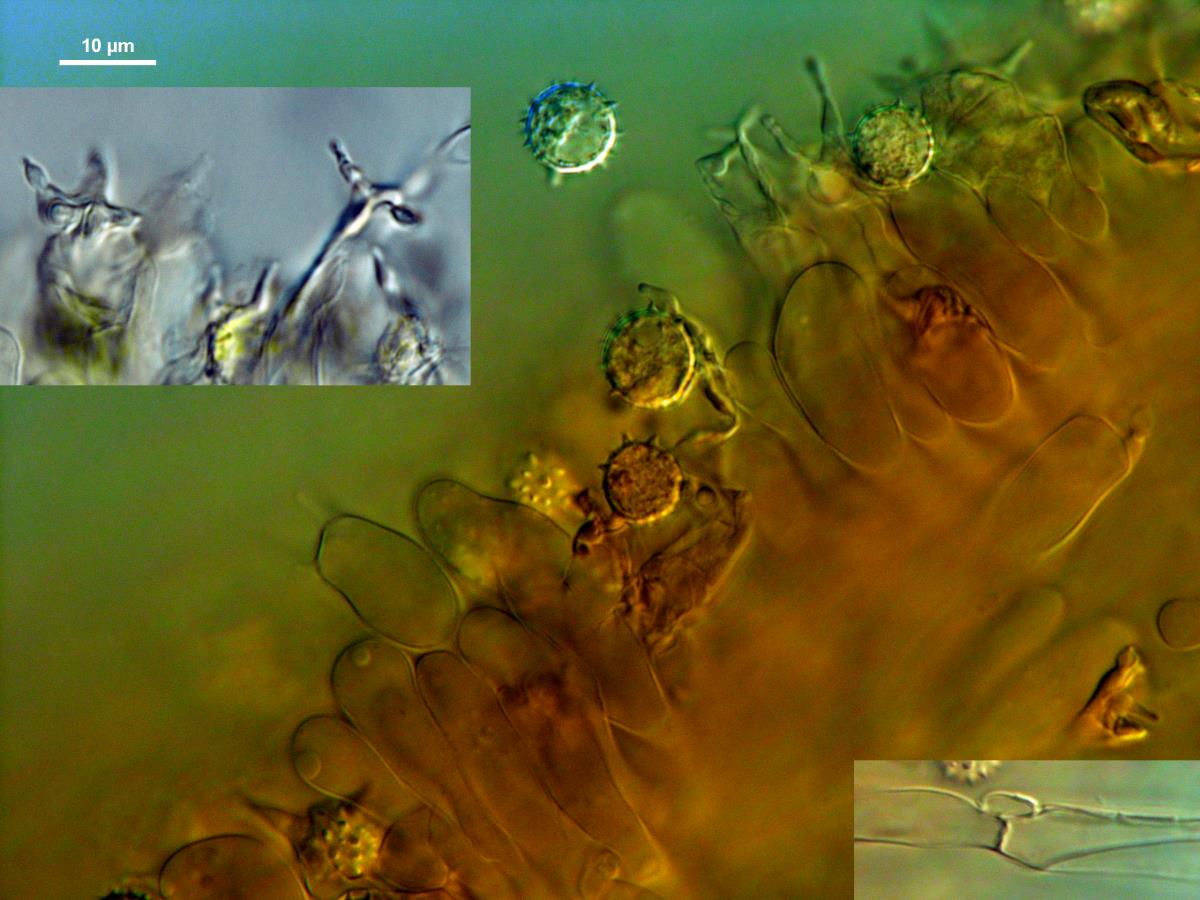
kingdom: Fungi
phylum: Basidiomycota
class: Agaricomycetes
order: Agaricales
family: Hydnangiaceae
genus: Laccaria
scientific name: Laccaria
